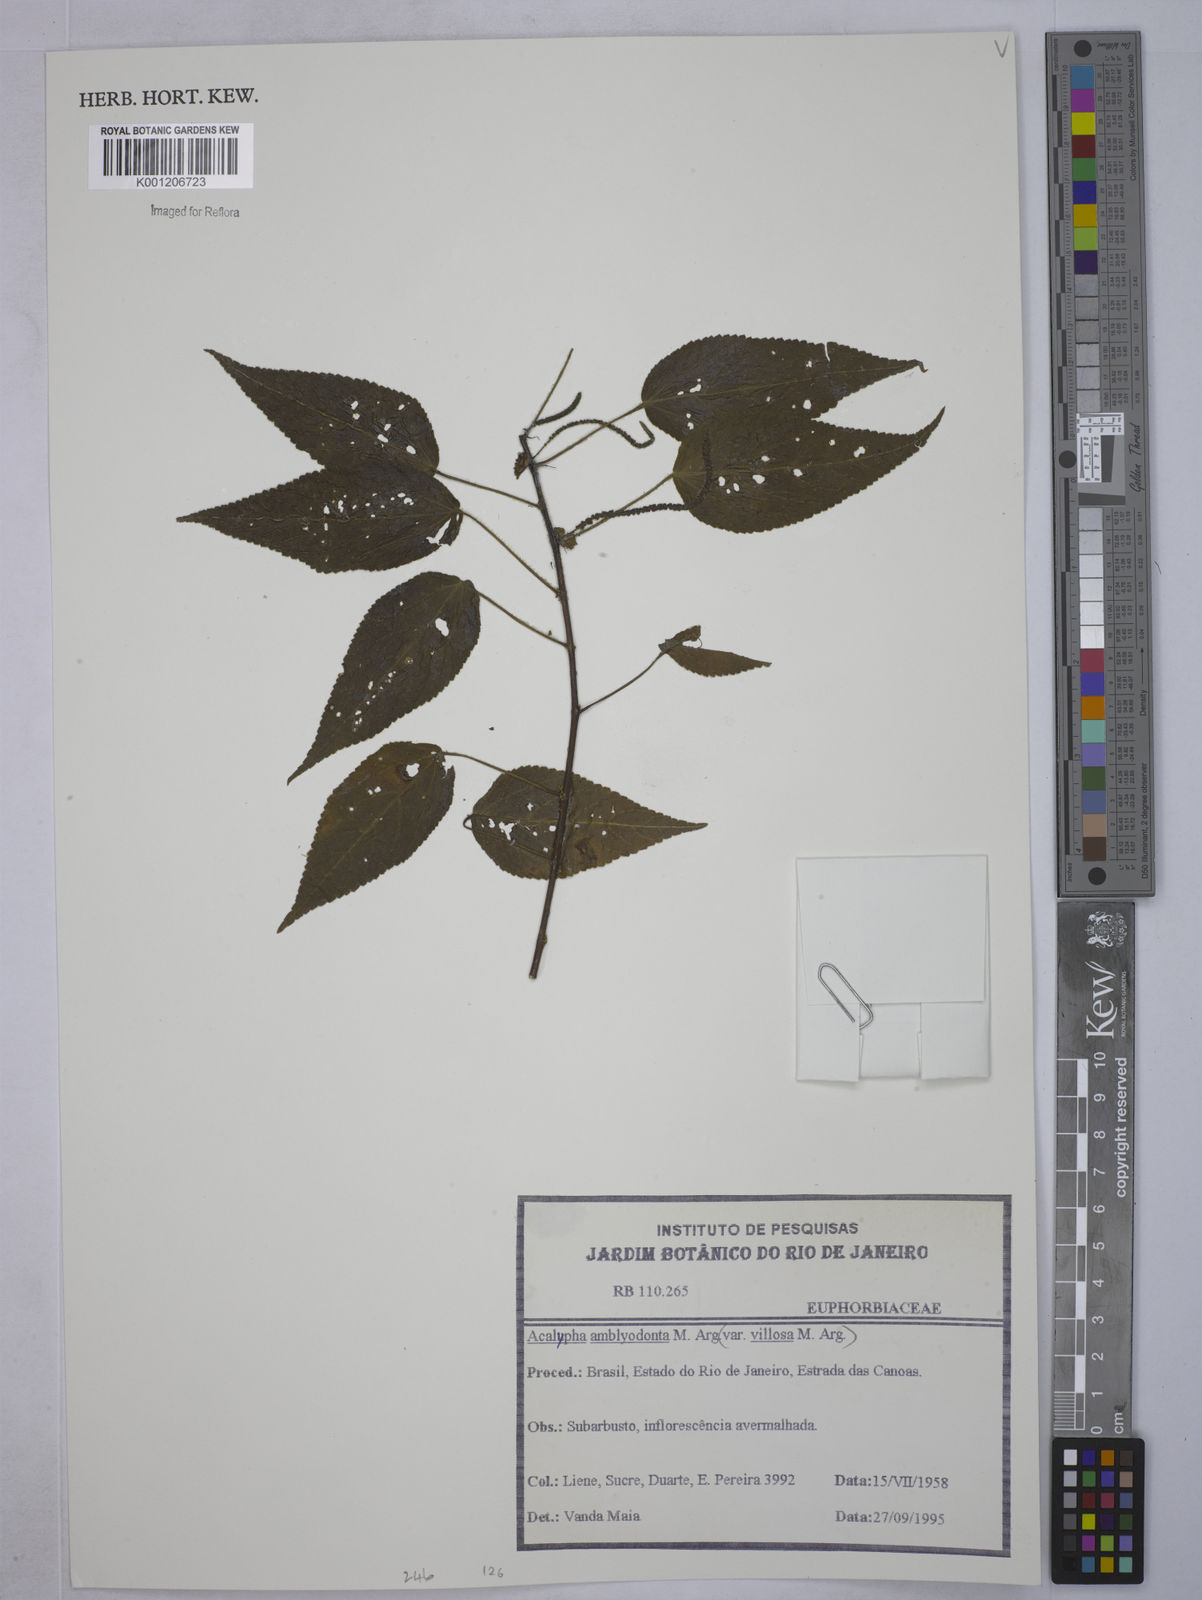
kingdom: Plantae
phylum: Tracheophyta
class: Magnoliopsida
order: Malpighiales
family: Euphorbiaceae
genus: Acalypha
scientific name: Acalypha
